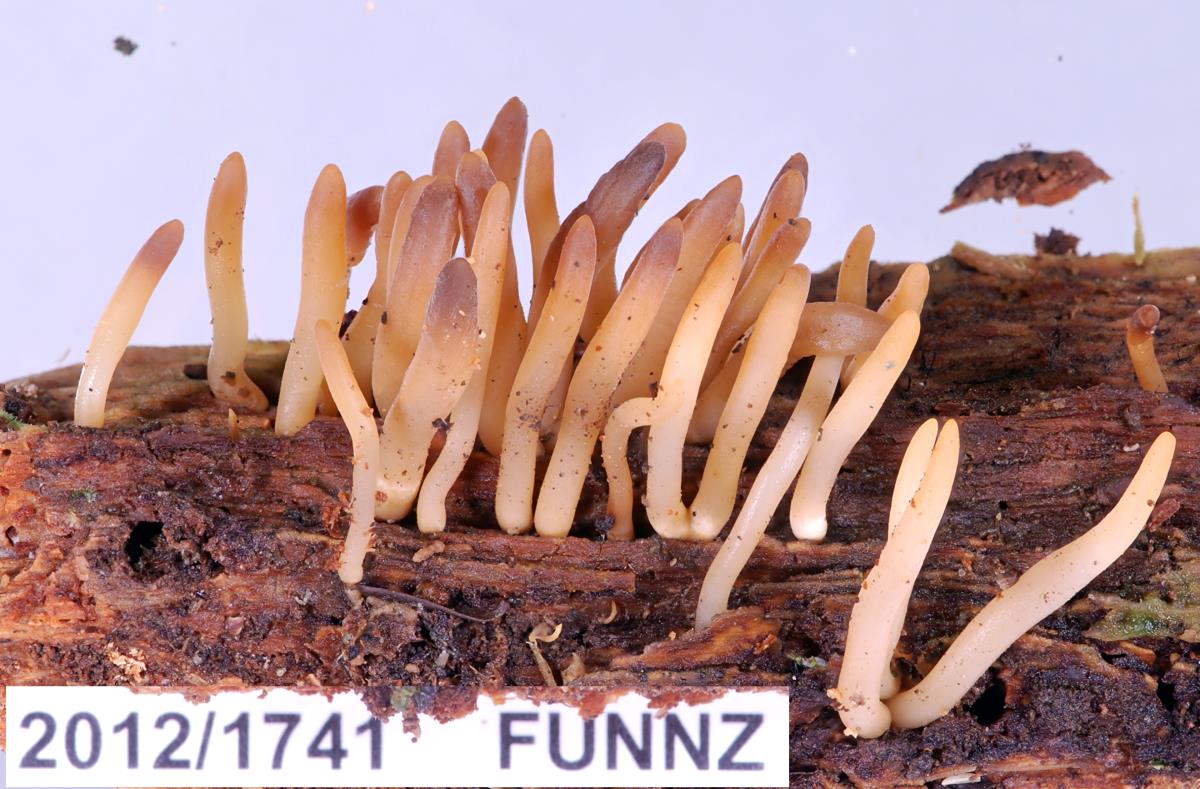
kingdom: Fungi
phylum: Basidiomycota
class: Dacrymycetes
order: Dacrymycetales
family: Dacrymycetaceae
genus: Calocera
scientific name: Calocera fusca
